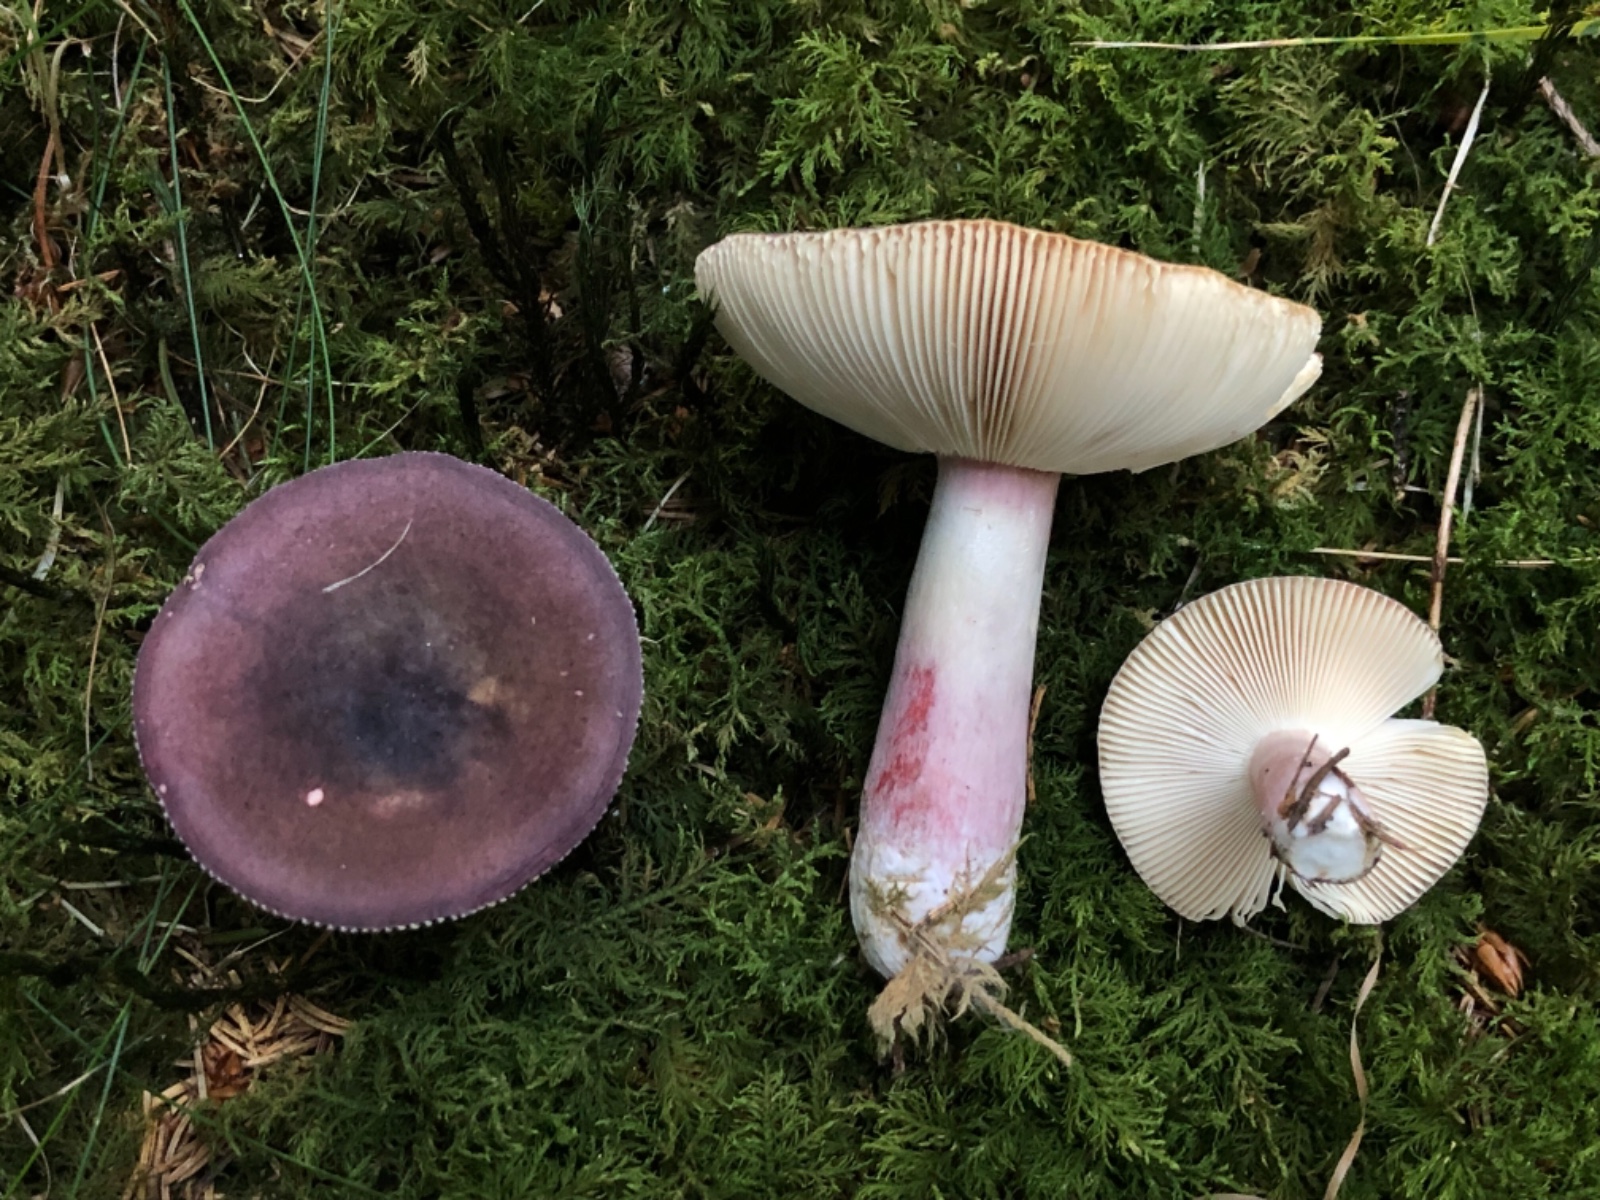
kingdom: Fungi
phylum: Basidiomycota
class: Agaricomycetes
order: Russulales
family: Russulaceae
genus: Russula
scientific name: Russula queletii
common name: Quélets skørhat
